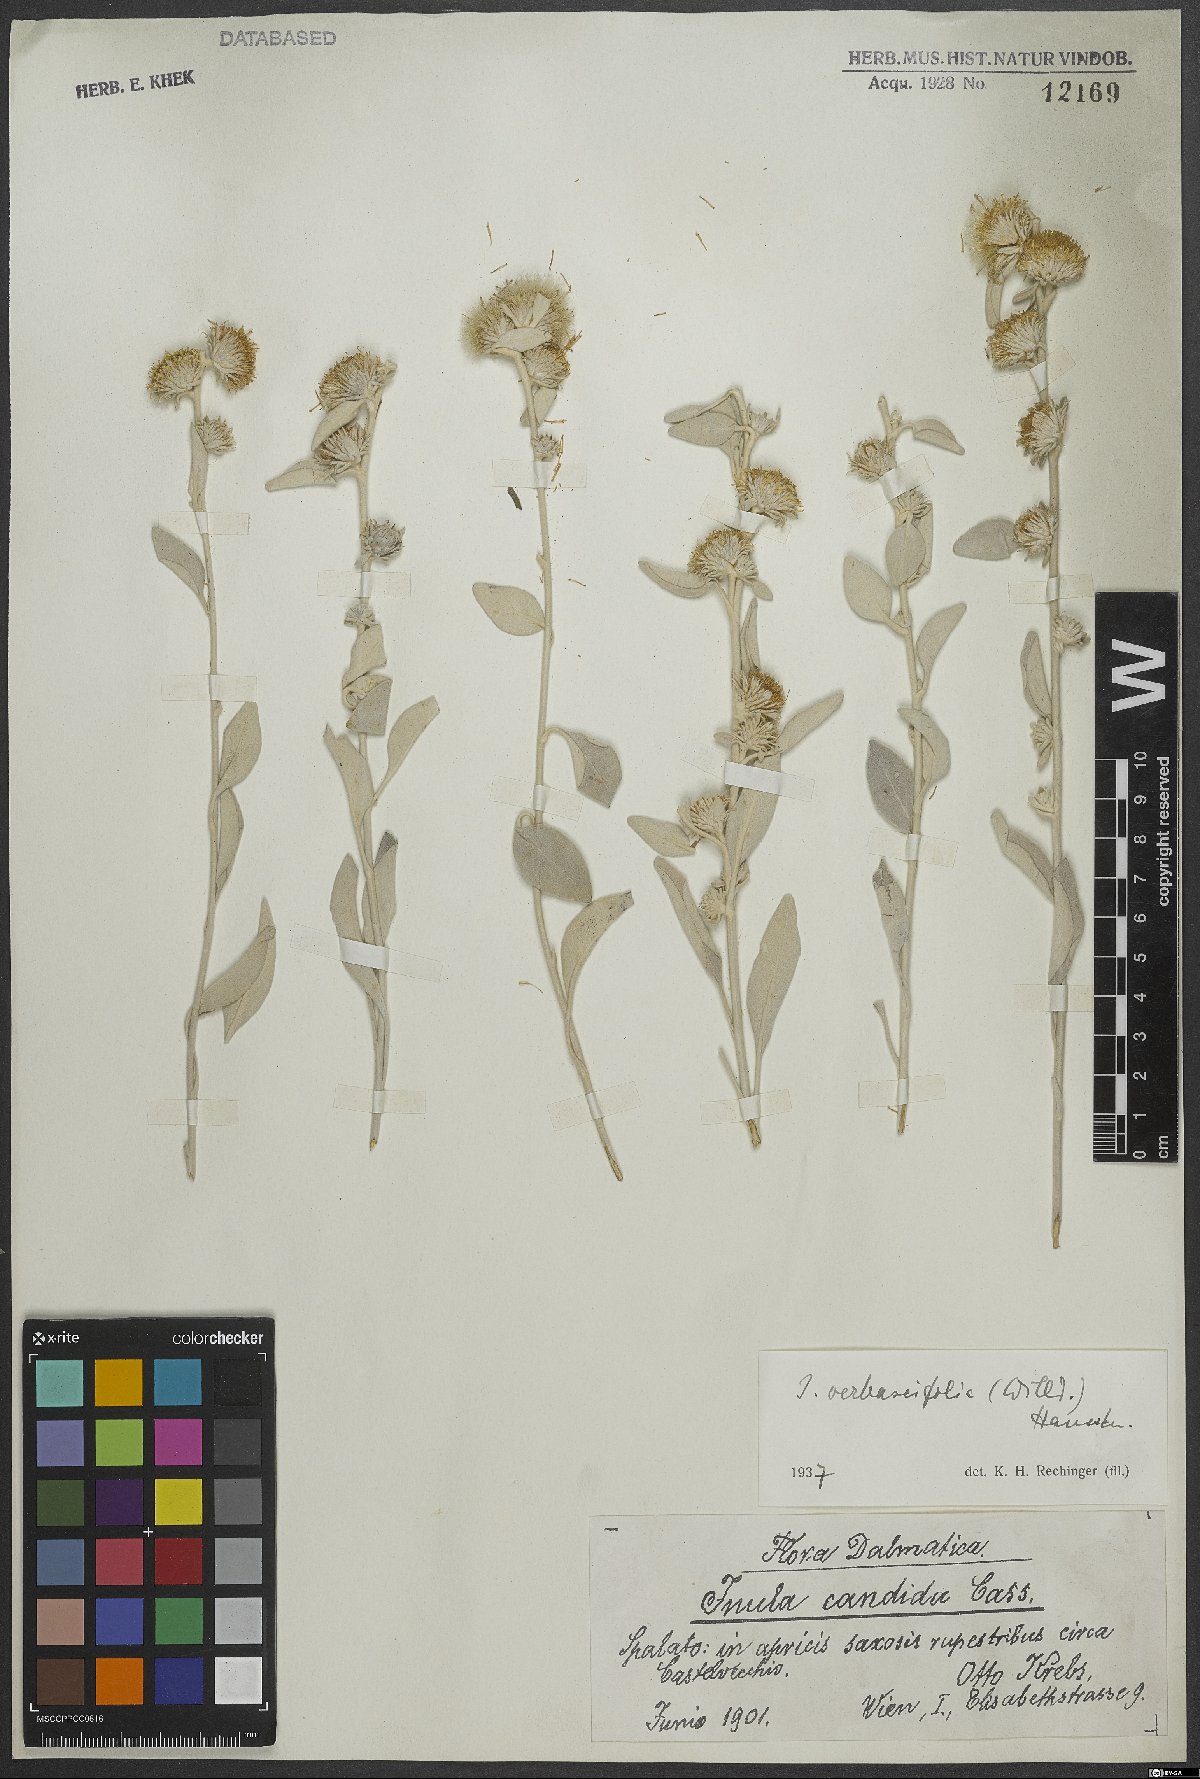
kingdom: Plantae
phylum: Tracheophyta
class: Magnoliopsida
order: Asterales
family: Asteraceae
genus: Pentanema
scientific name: Pentanema verbascifolium
